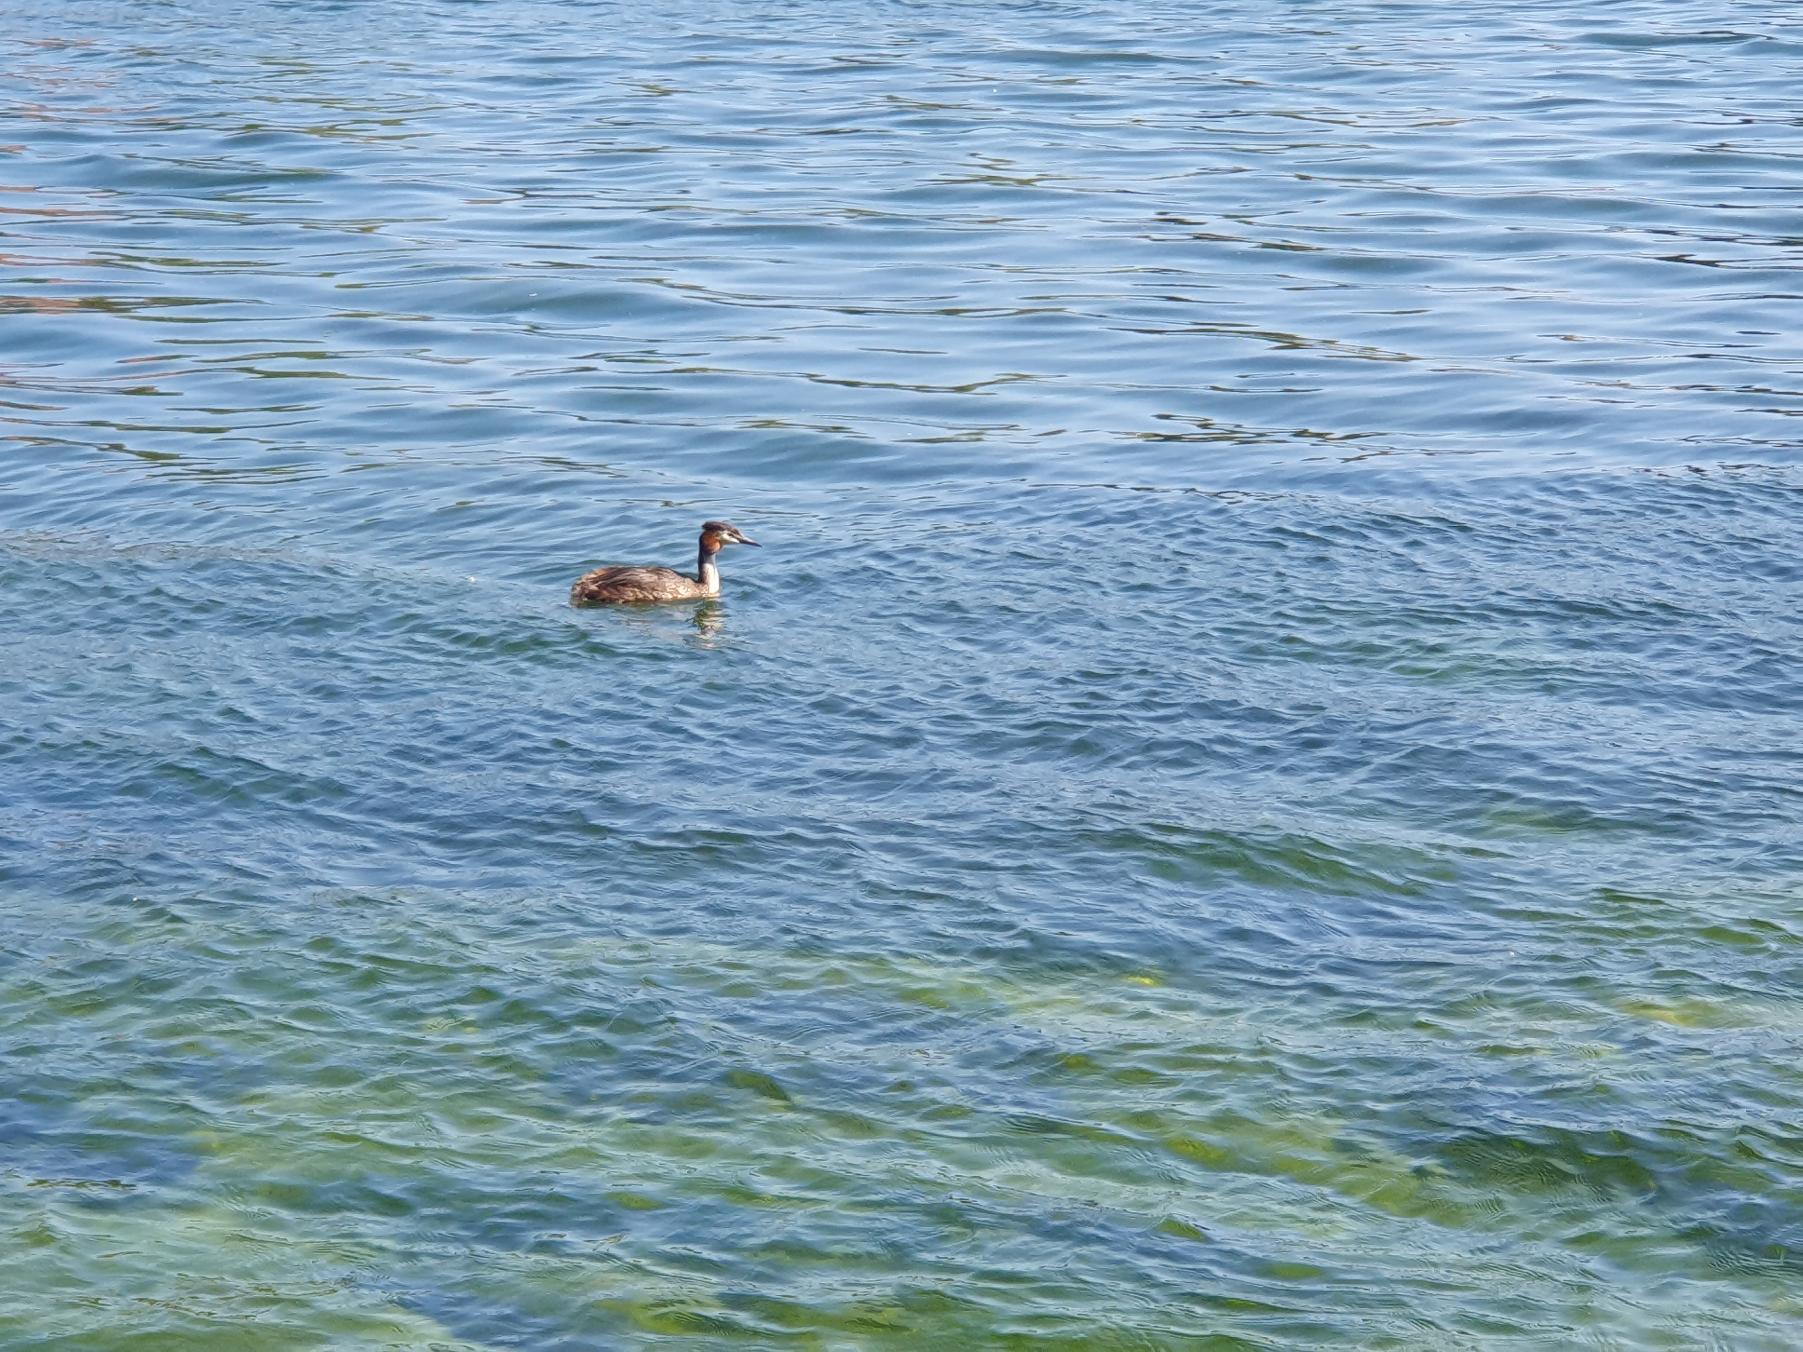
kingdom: Animalia
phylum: Chordata
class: Aves
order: Podicipediformes
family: Podicipedidae
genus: Podiceps
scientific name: Podiceps cristatus
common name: Toppet lappedykker
